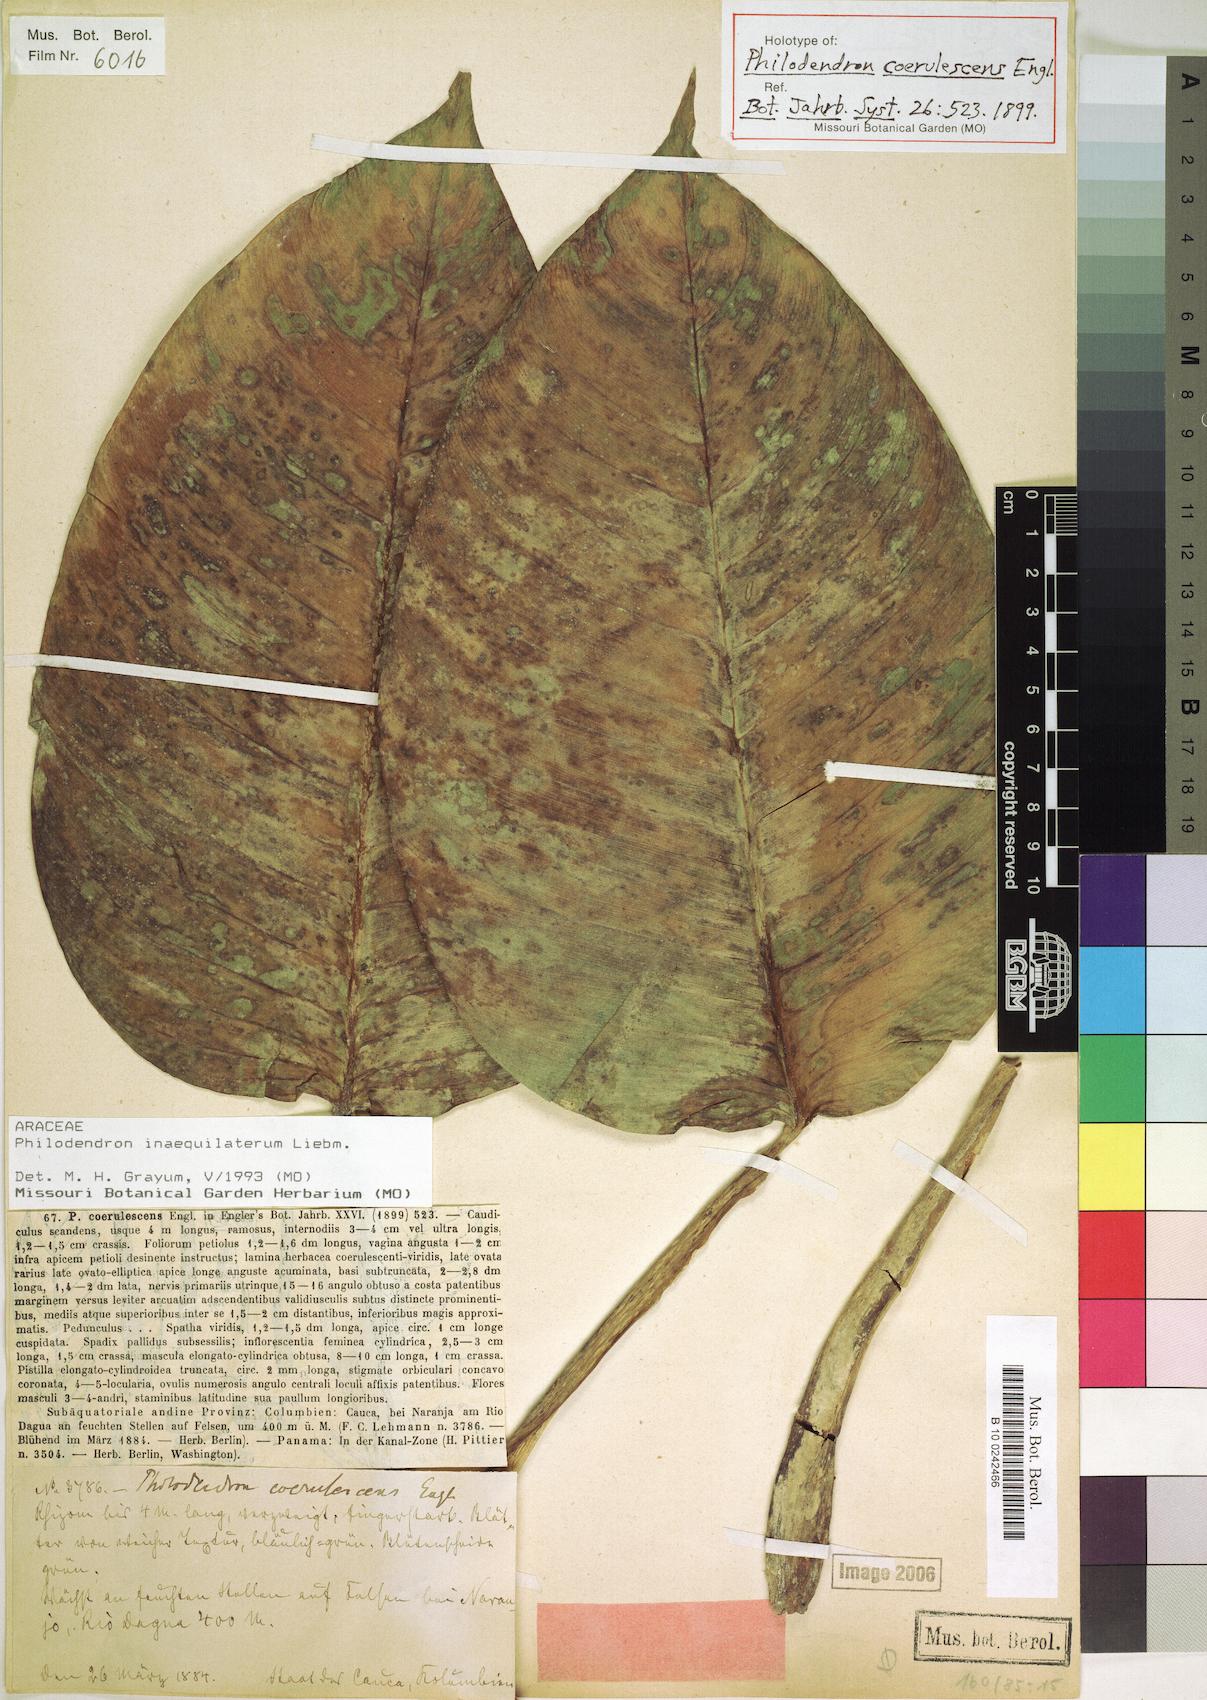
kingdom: Plantae
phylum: Tracheophyta
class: Liliopsida
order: Alismatales
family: Araceae
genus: Philodendron
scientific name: Philodendron inaequilaterum
